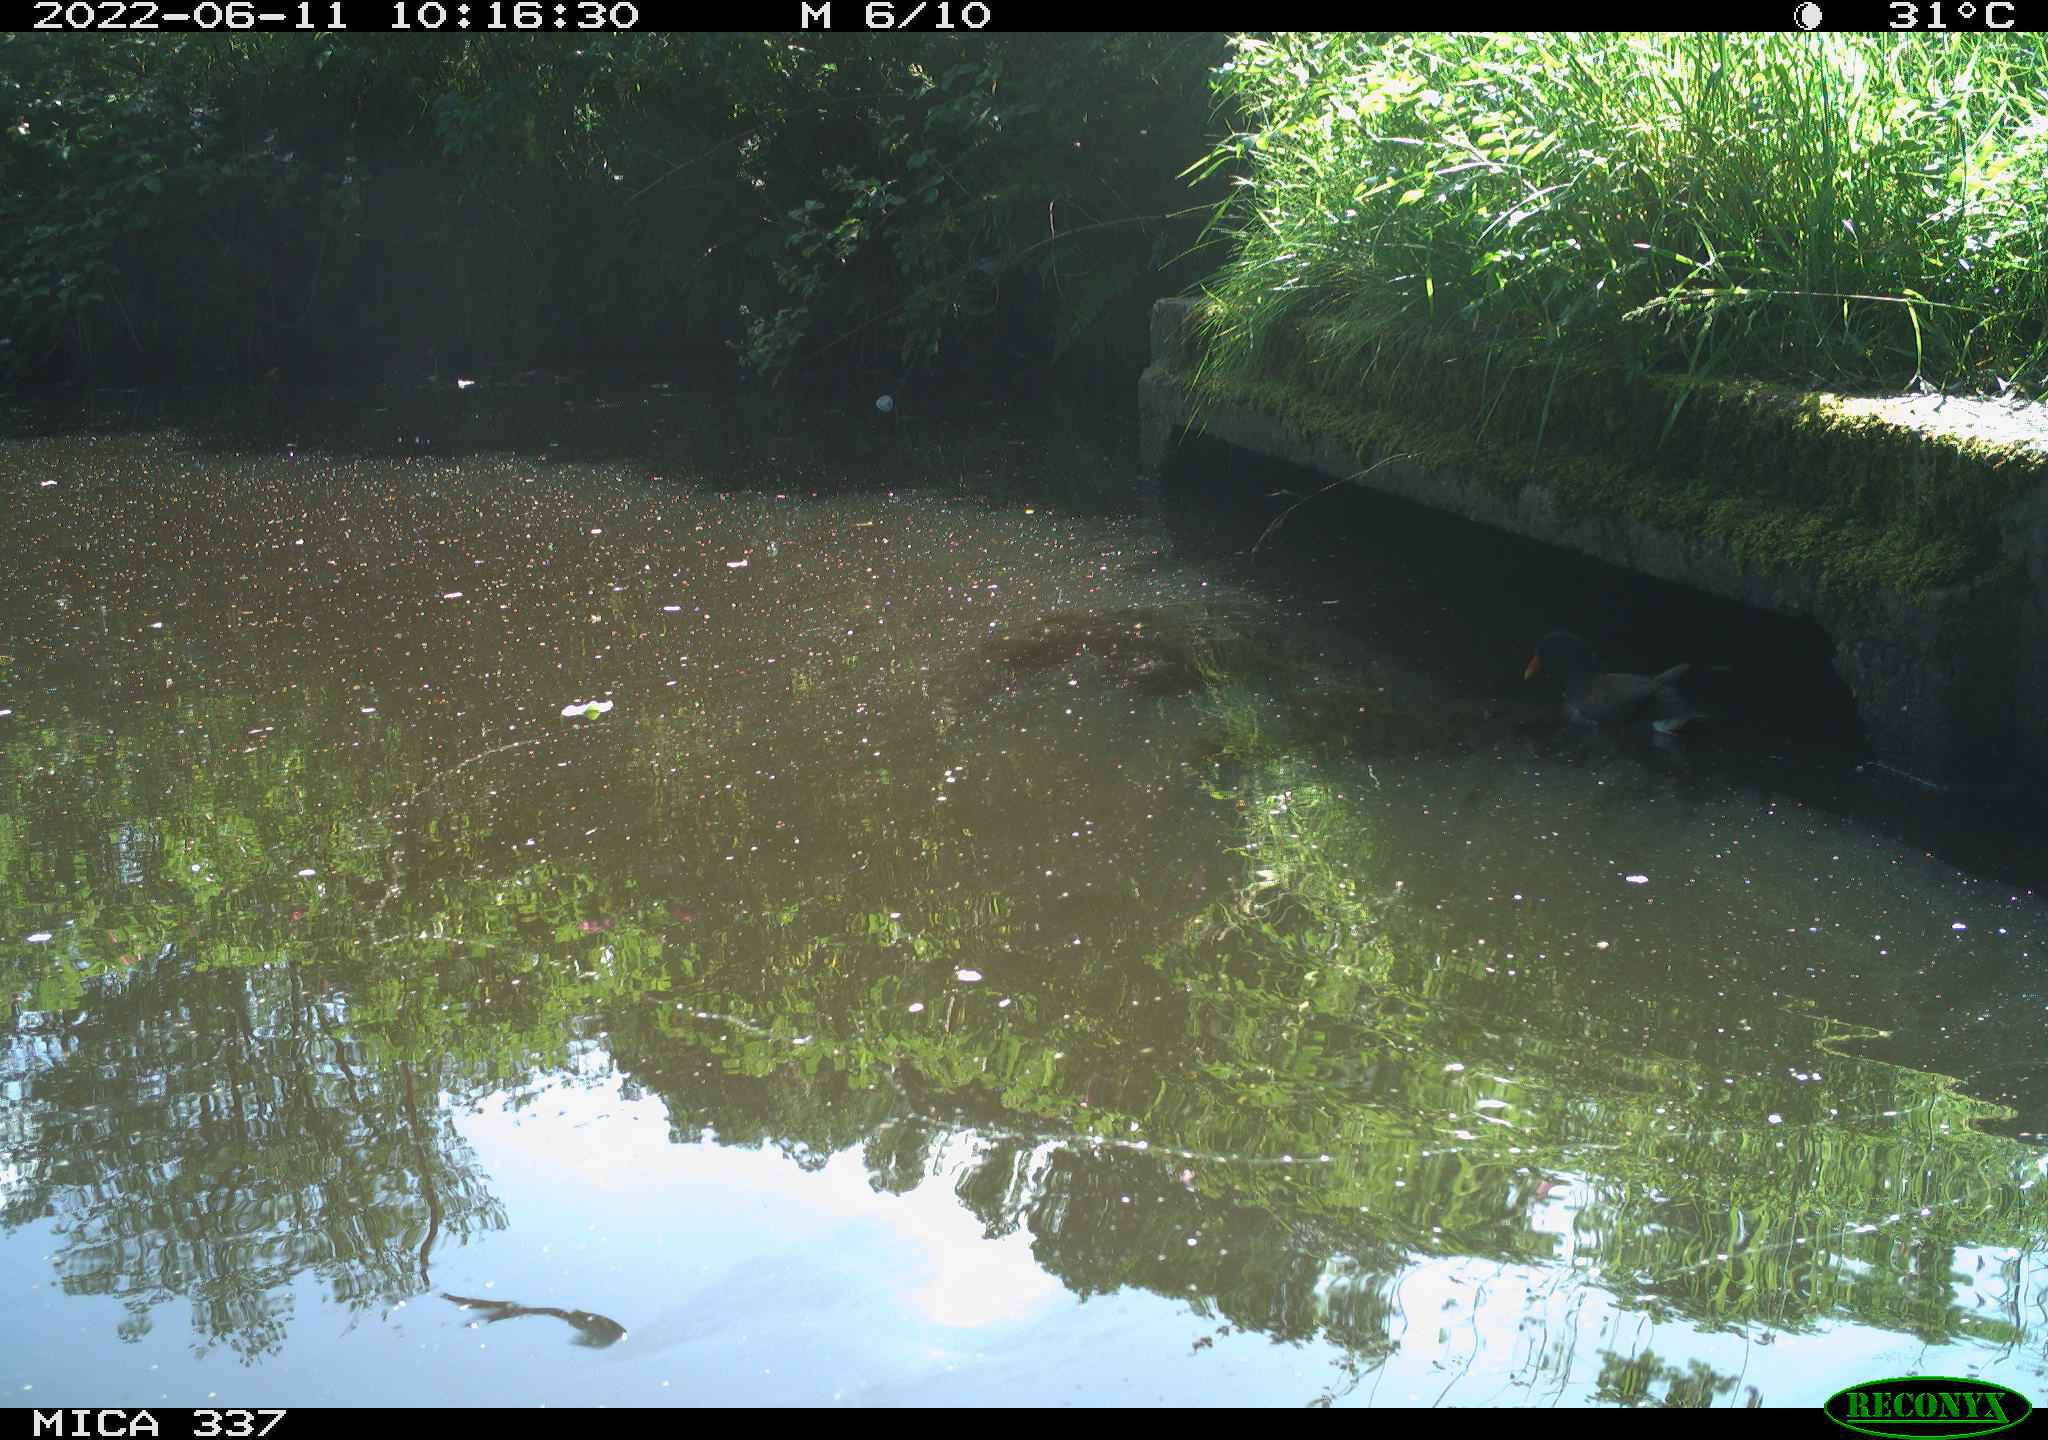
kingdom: Animalia
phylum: Chordata
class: Aves
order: Gruiformes
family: Rallidae
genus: Gallinula
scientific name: Gallinula chloropus
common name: Common moorhen
